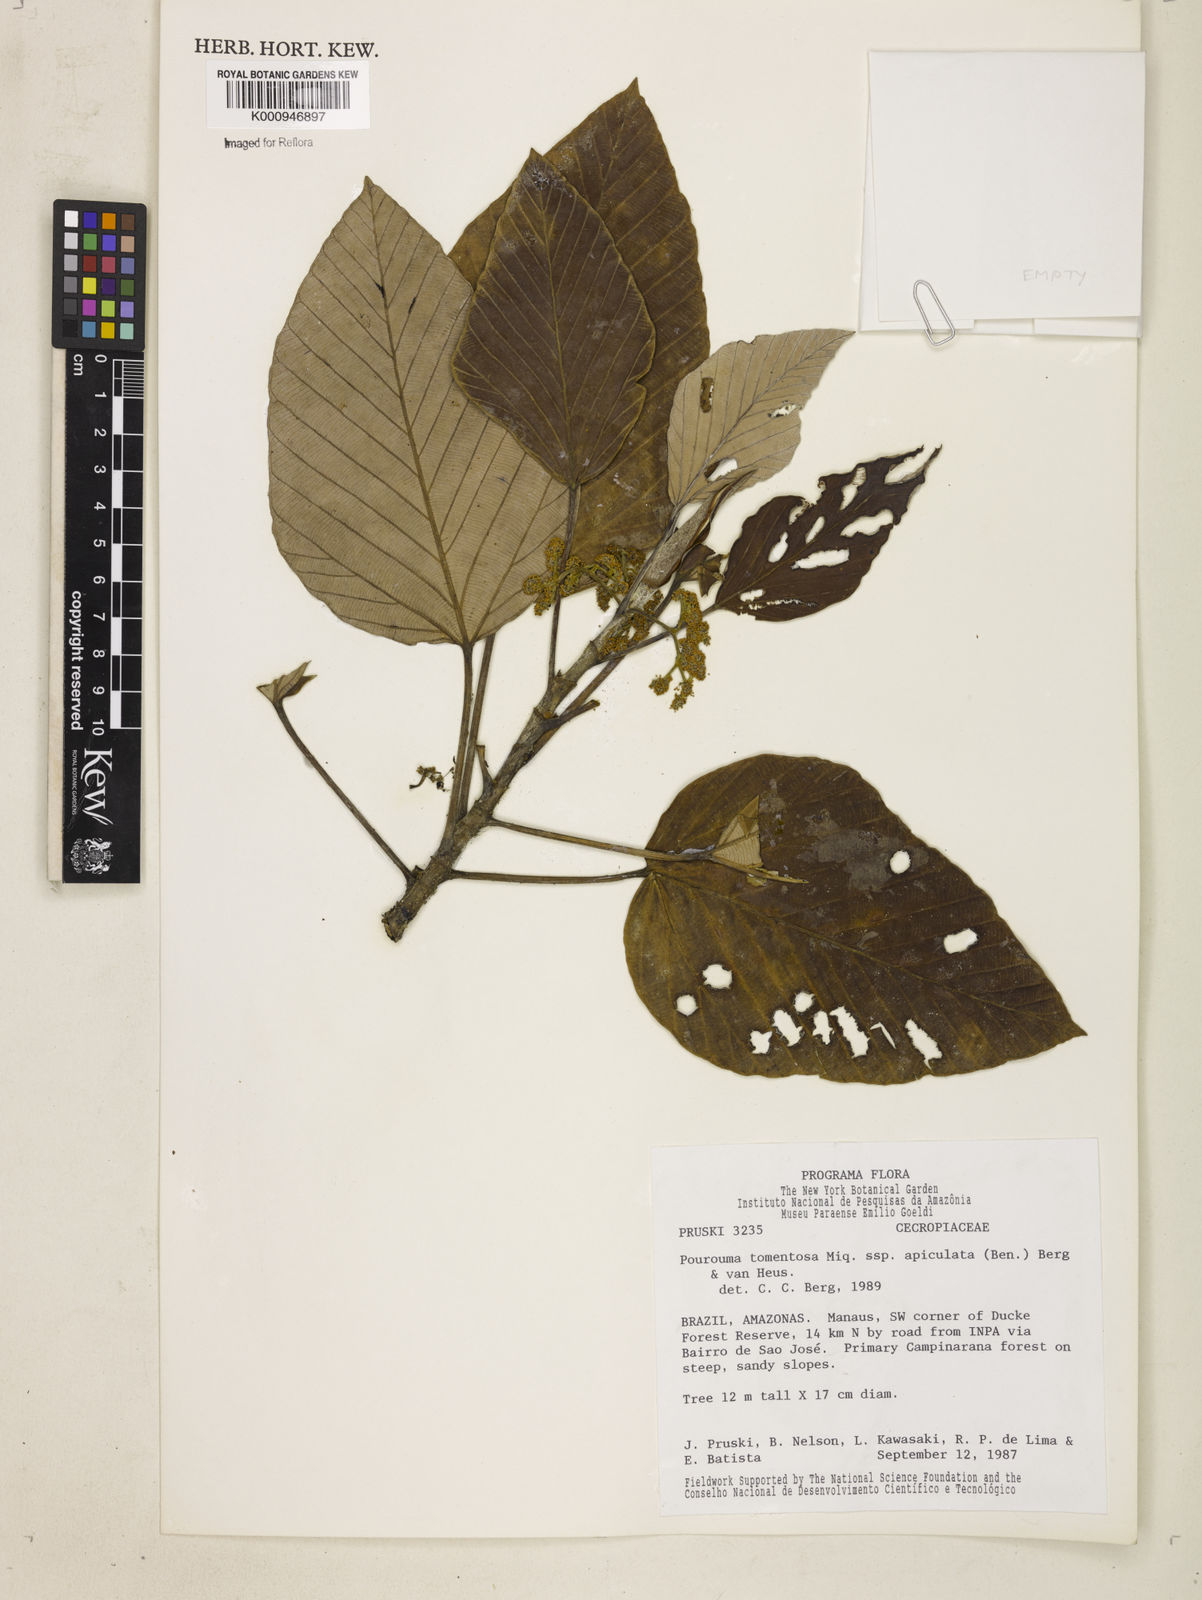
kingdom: Plantae
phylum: Tracheophyta
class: Magnoliopsida
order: Rosales
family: Urticaceae
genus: Pourouma
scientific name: Pourouma tomentosa
